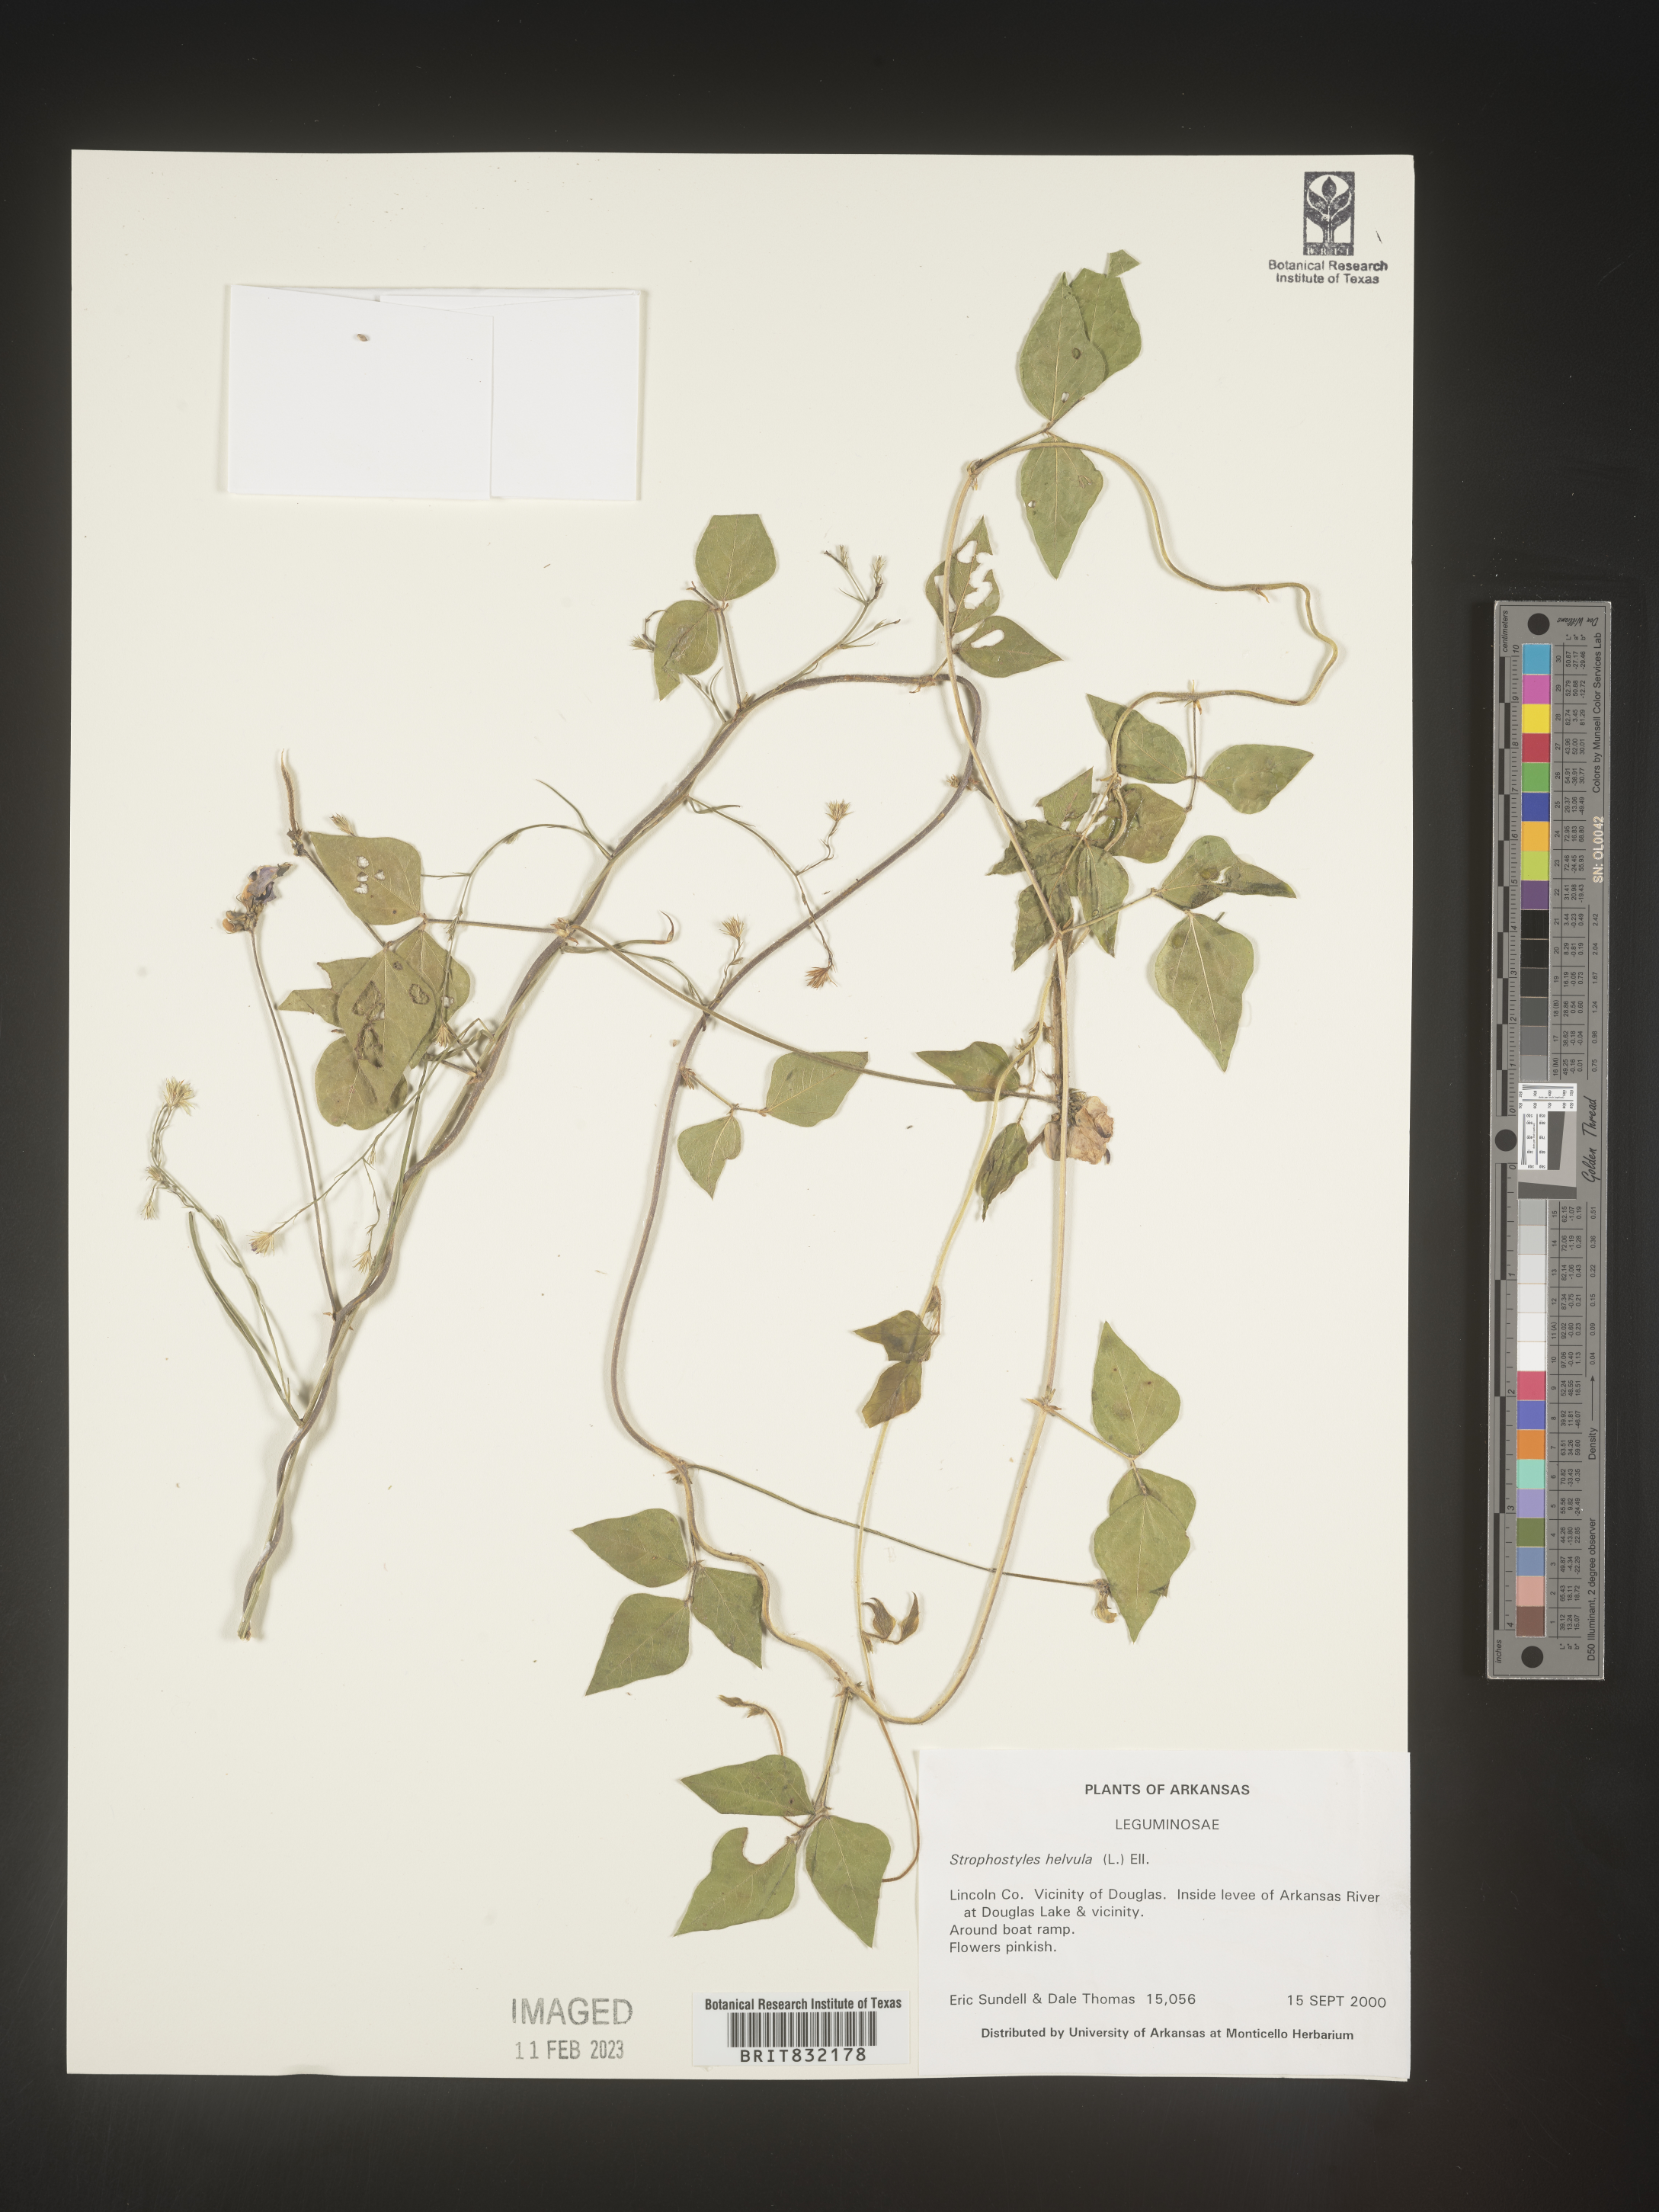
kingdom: Plantae
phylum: Tracheophyta
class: Magnoliopsida
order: Fabales
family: Fabaceae
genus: Strophostyles
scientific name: Strophostyles helvola
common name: Trailing wild bean
